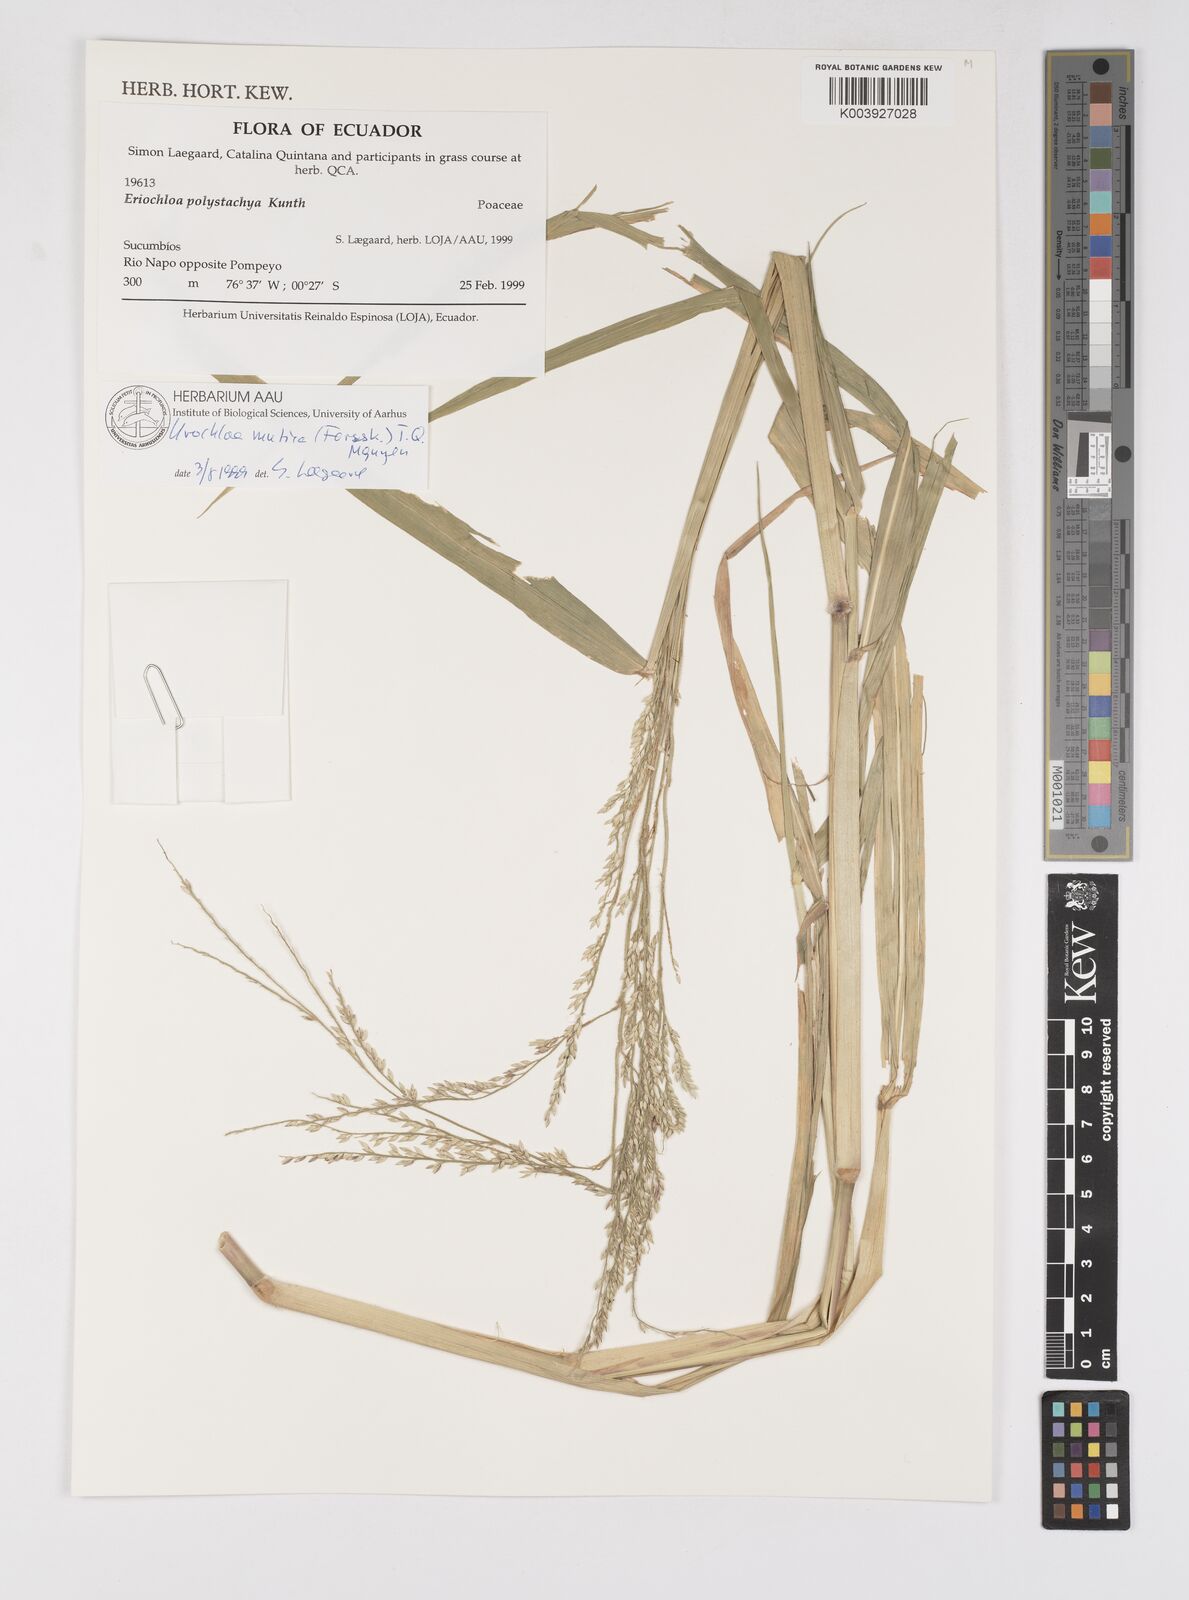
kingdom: Plantae
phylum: Tracheophyta
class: Liliopsida
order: Poales
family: Poaceae
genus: Urochloa
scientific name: Urochloa polystachya
